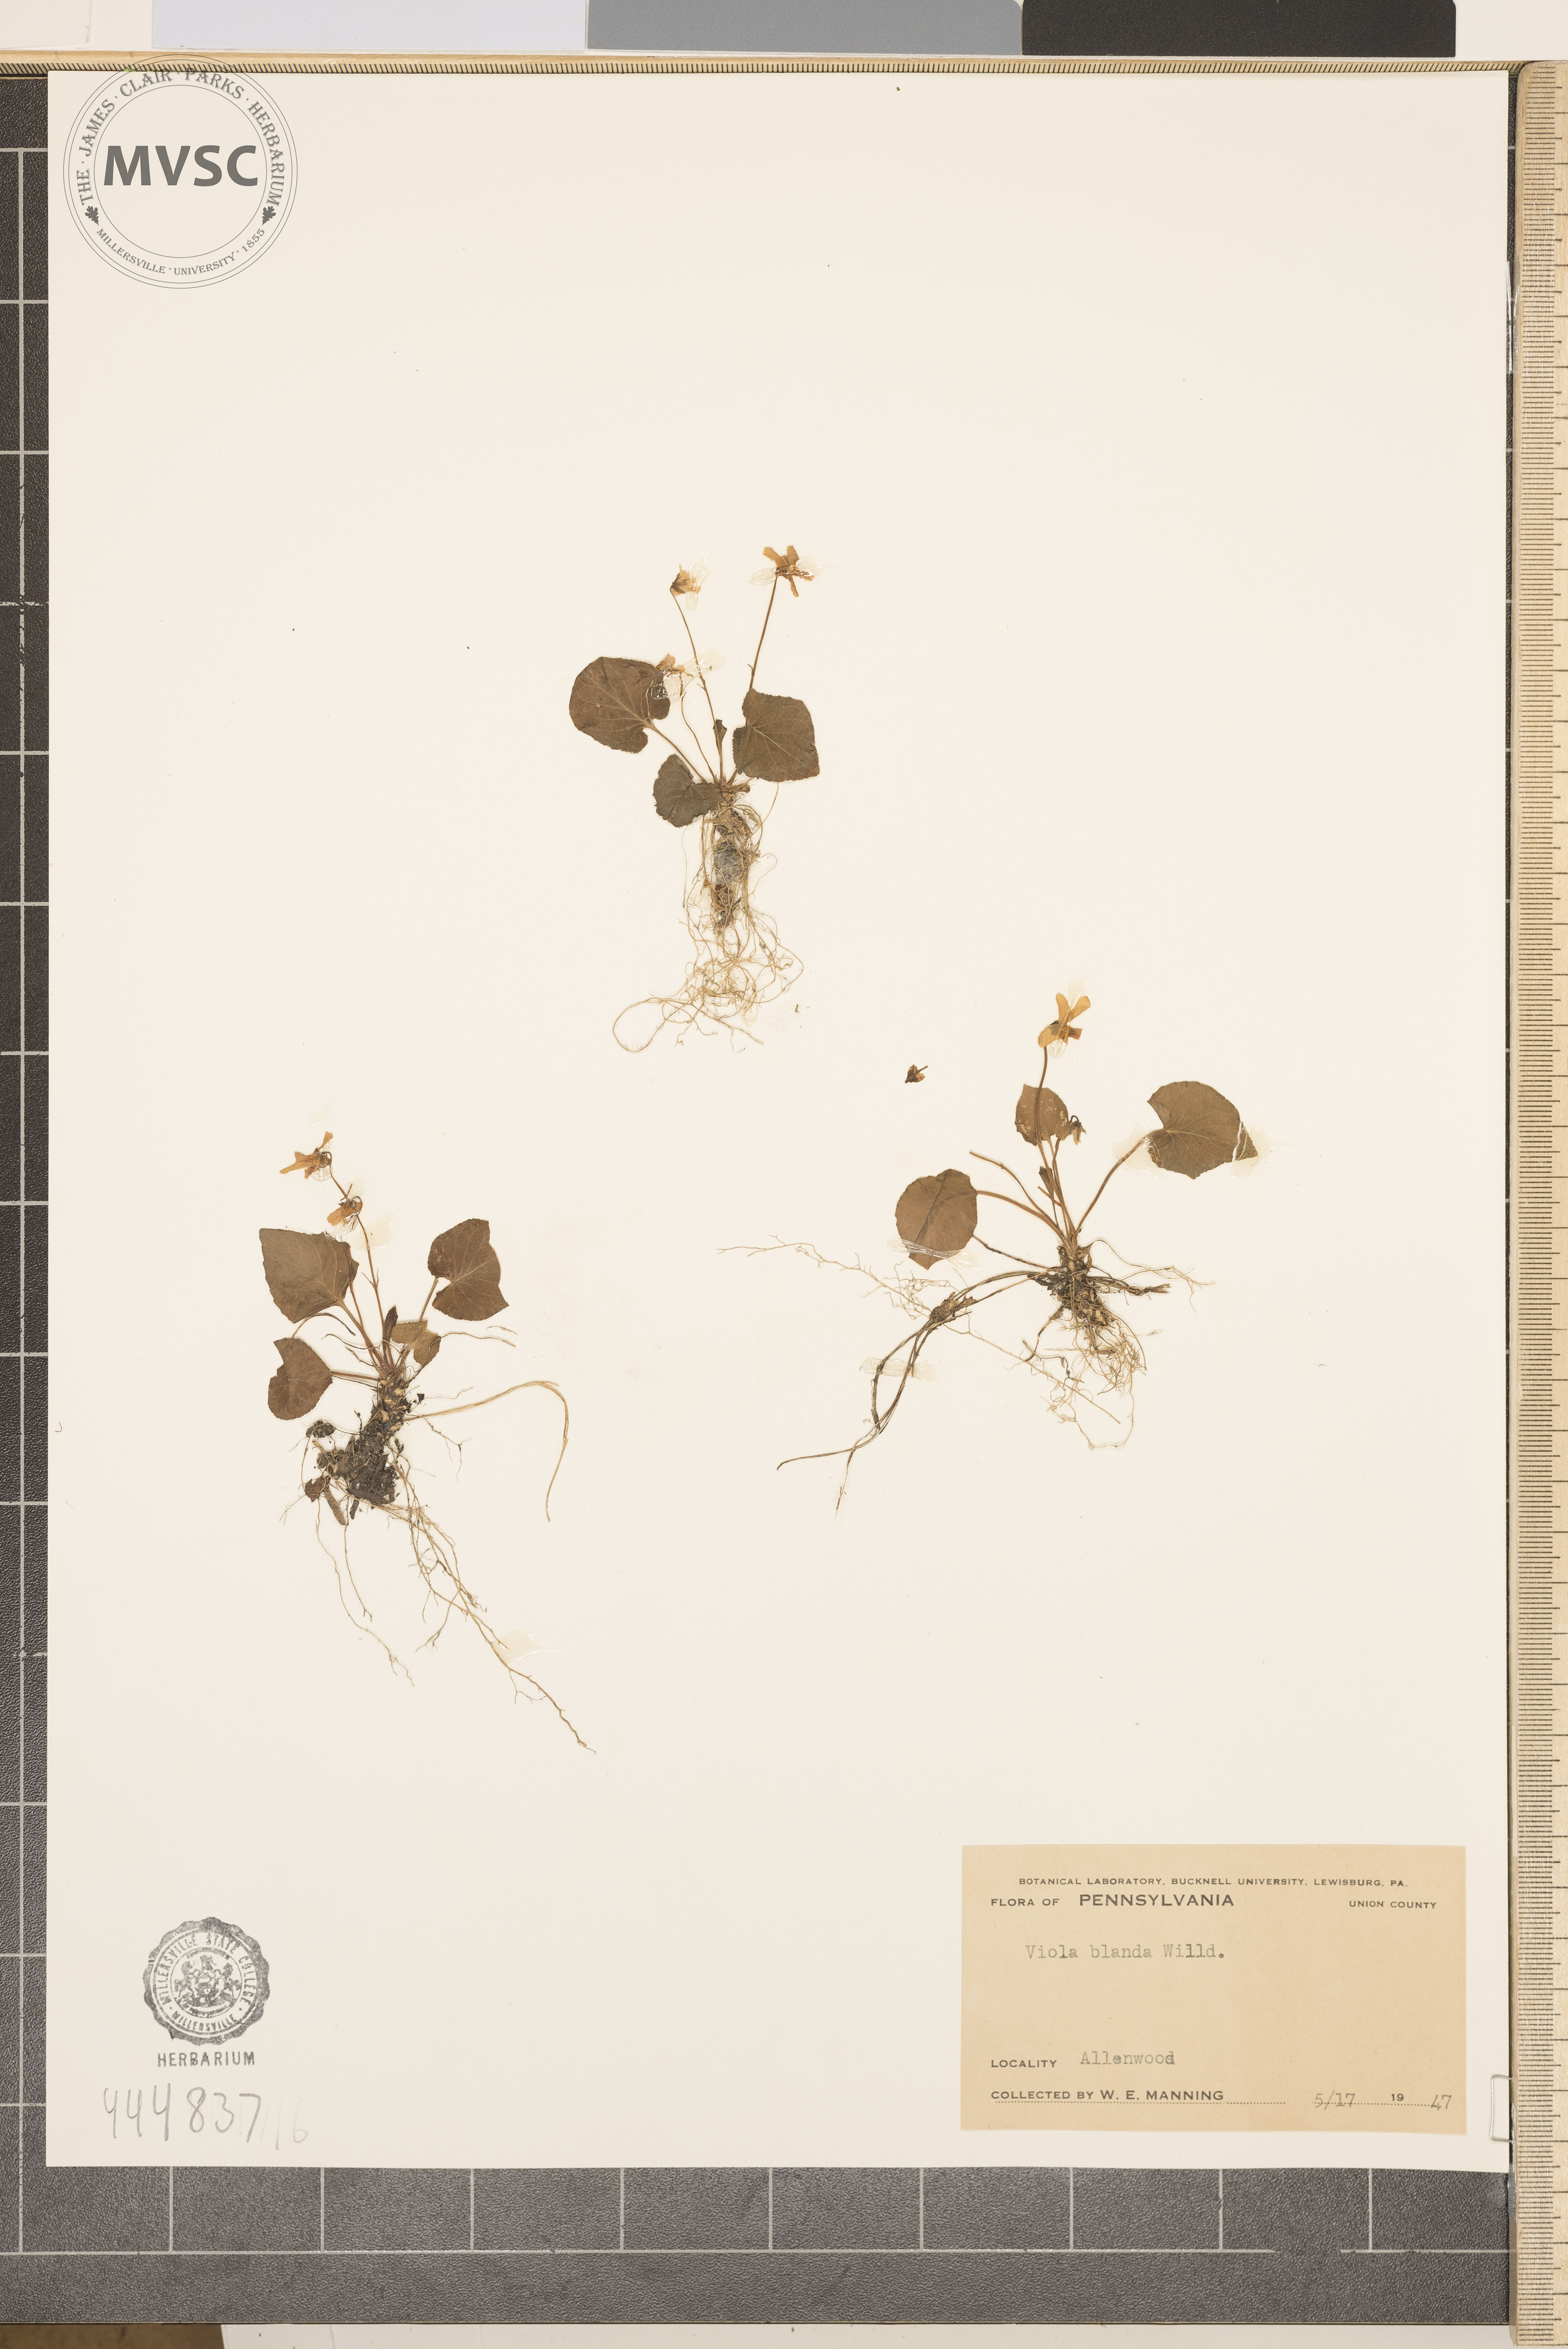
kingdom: Plantae
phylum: Tracheophyta
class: Magnoliopsida
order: Malpighiales
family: Violaceae
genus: Viola
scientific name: Viola blanda
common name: Sweet white violet
